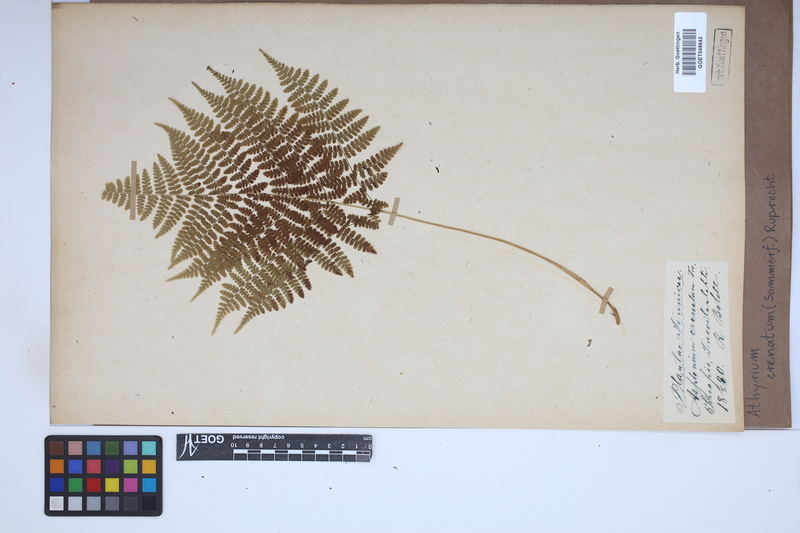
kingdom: Plantae
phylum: Tracheophyta
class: Polypodiopsida
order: Polypodiales
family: Athyriaceae
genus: Diplazium
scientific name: Diplazium sibiricum
